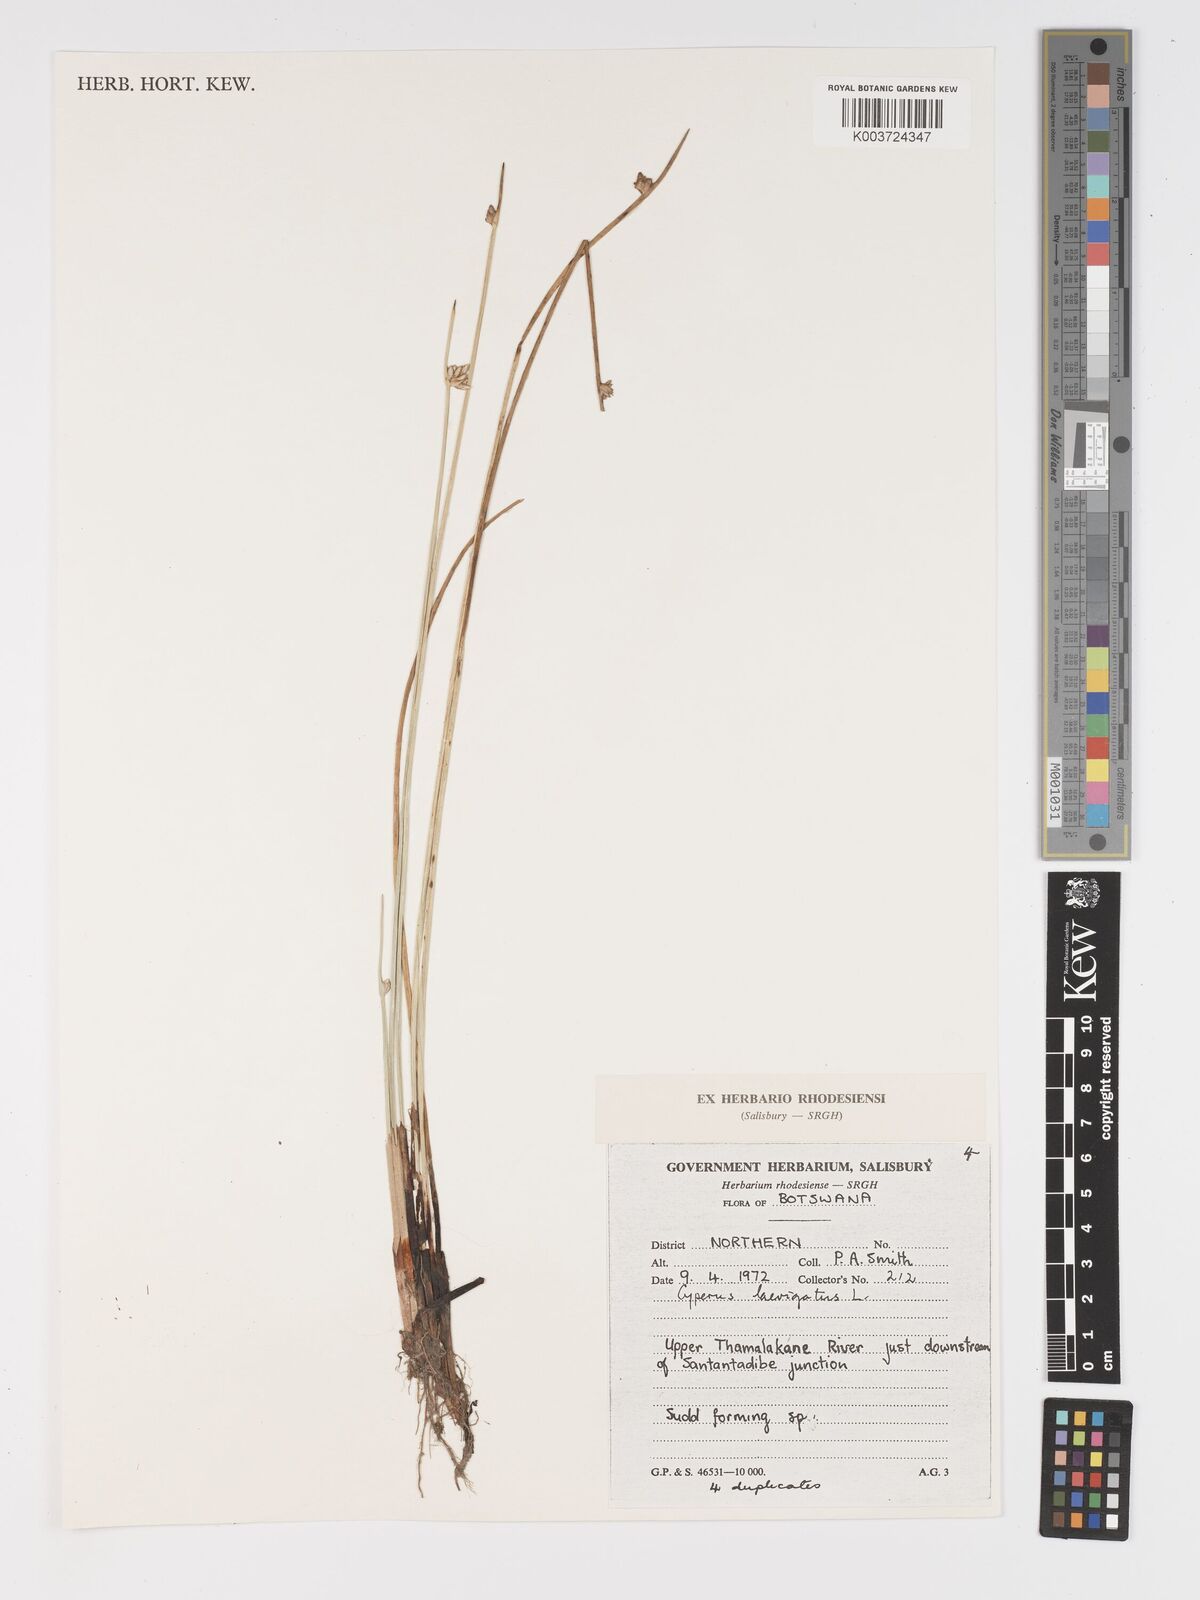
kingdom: Plantae
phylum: Tracheophyta
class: Liliopsida
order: Poales
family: Cyperaceae
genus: Cyperus
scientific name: Cyperus laevigatus
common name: Smooth flat sedge
